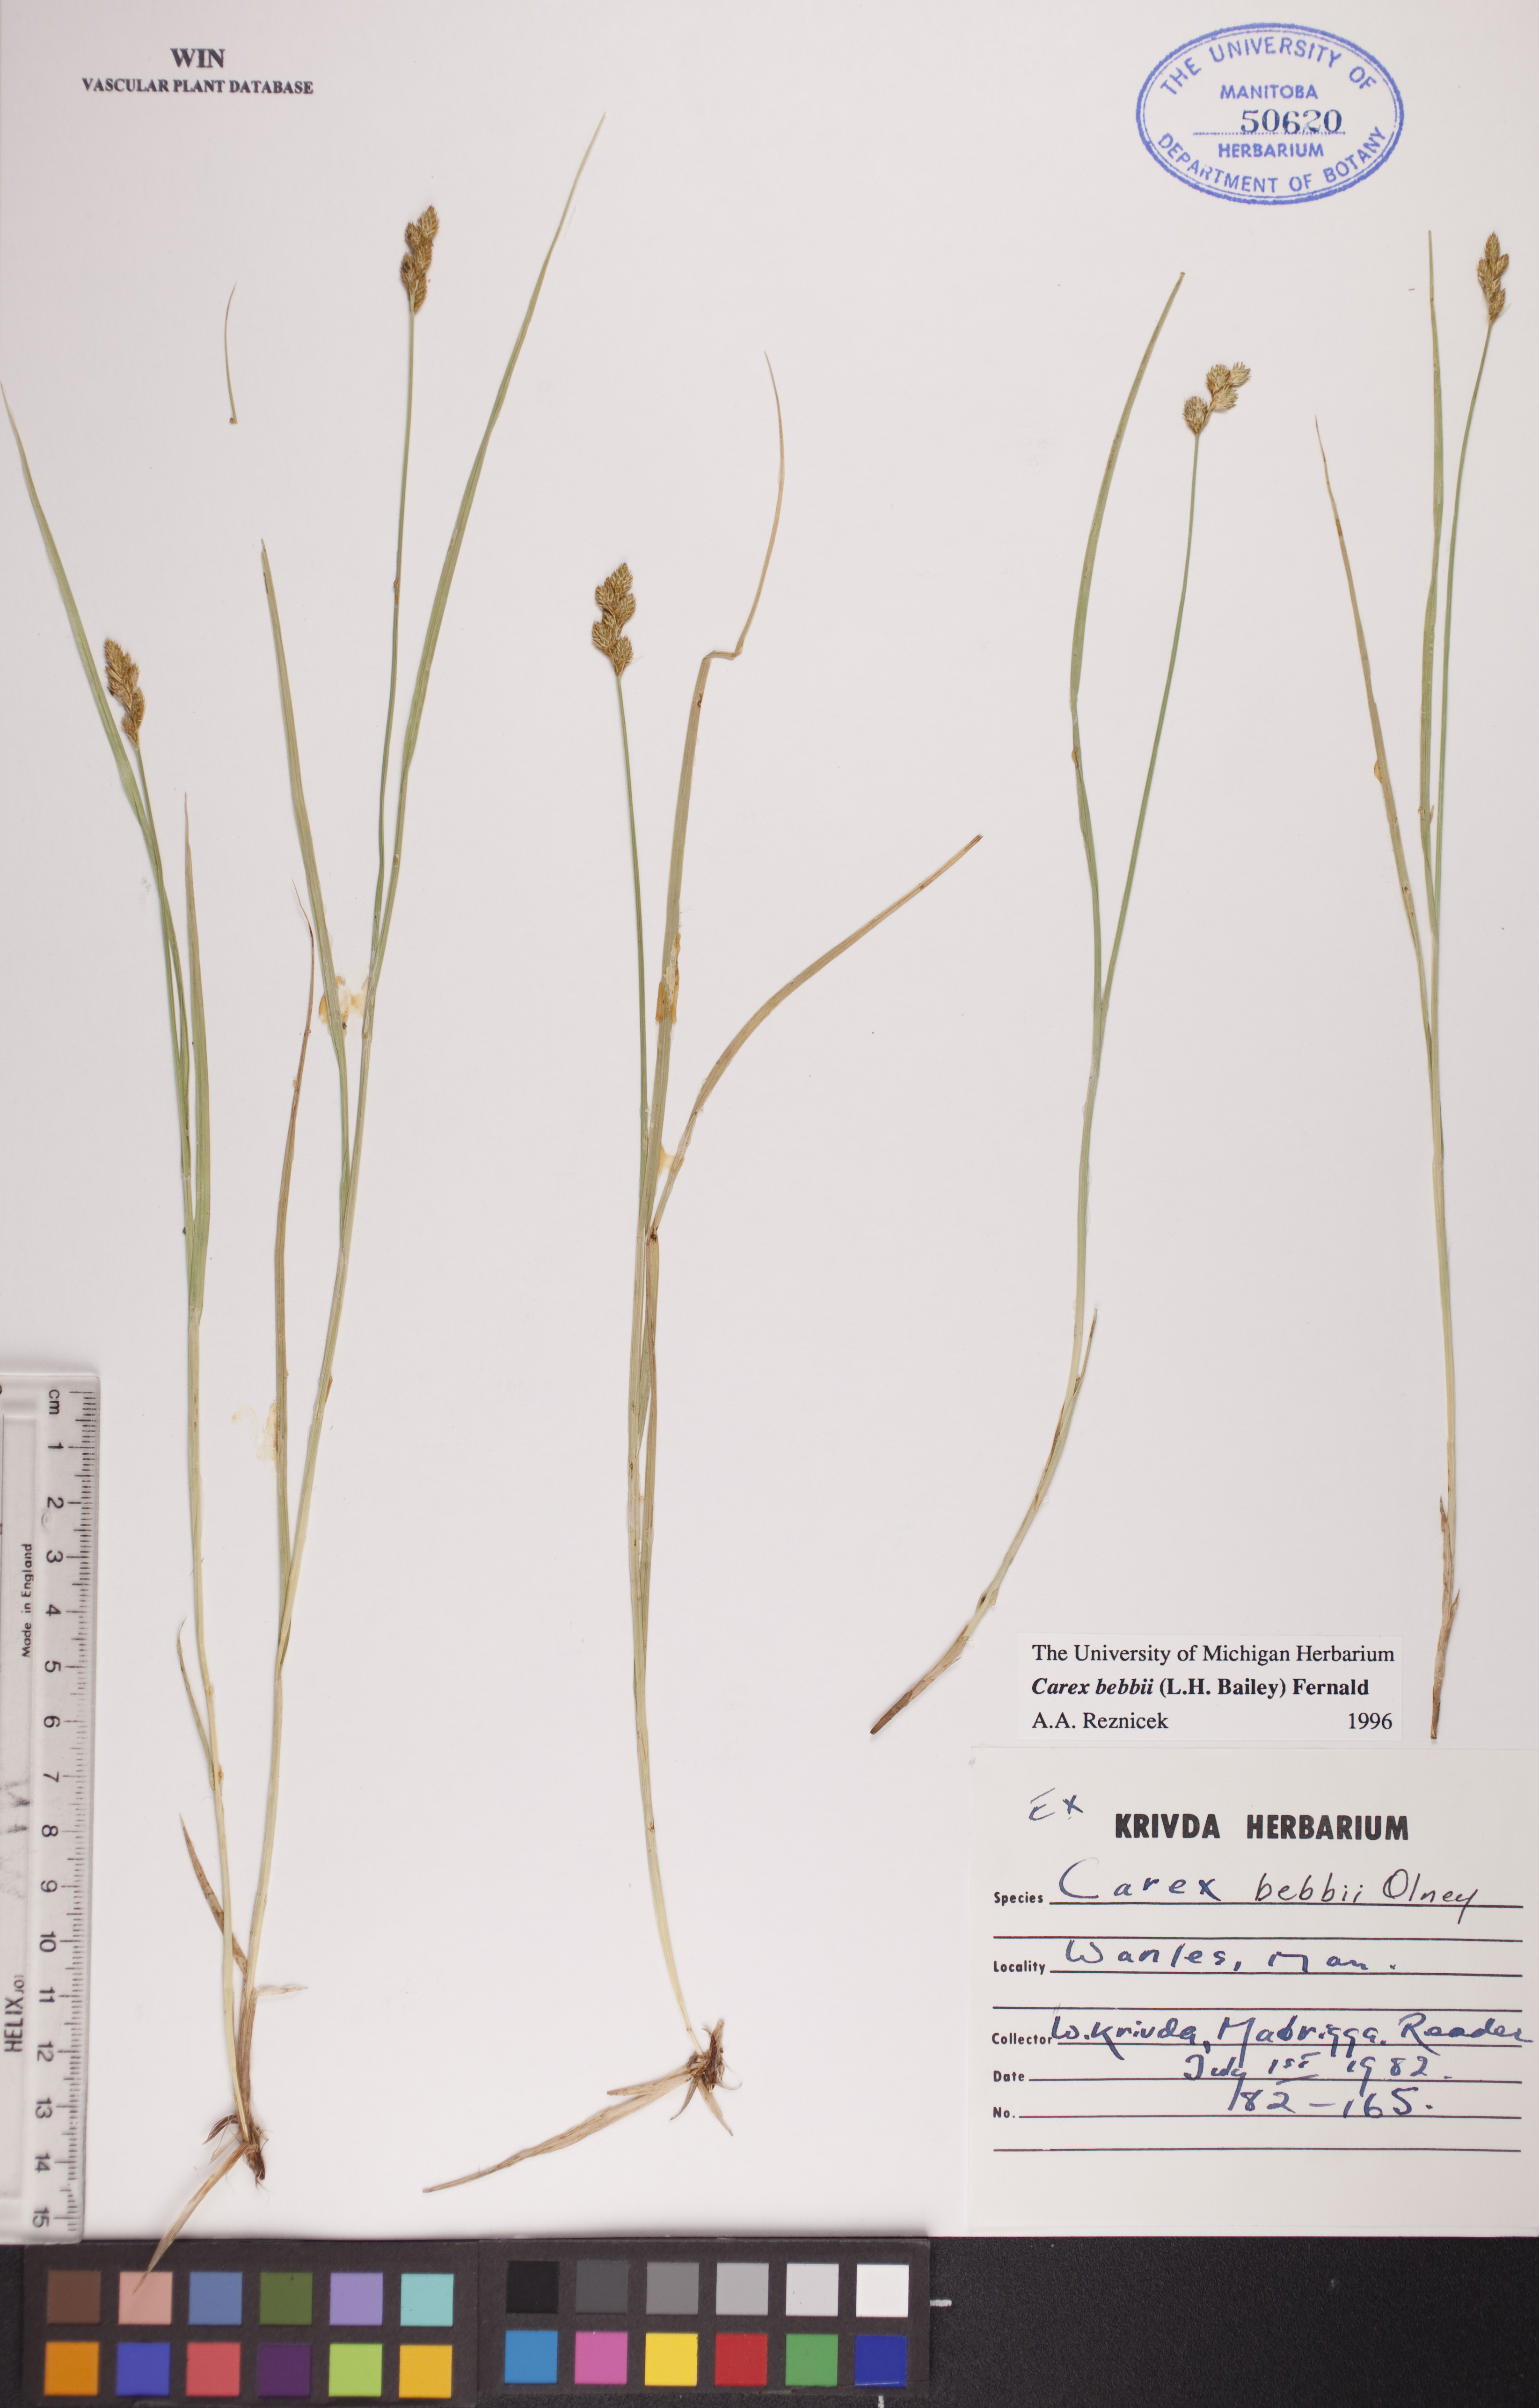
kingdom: Plantae
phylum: Tracheophyta
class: Liliopsida
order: Poales
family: Cyperaceae
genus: Carex
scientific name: Carex bebbii
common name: Bebb's sedge
